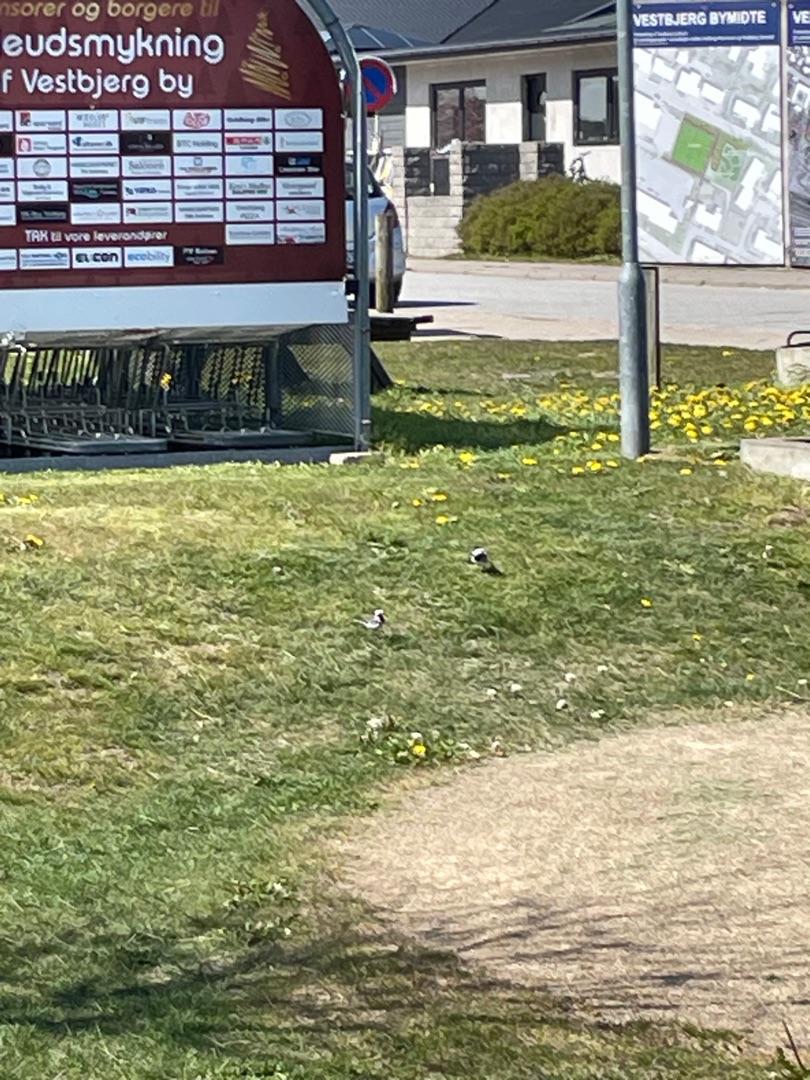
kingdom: Animalia
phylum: Chordata
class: Aves
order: Passeriformes
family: Motacillidae
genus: Motacilla
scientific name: Motacilla alba
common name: Hvid vipstjert
